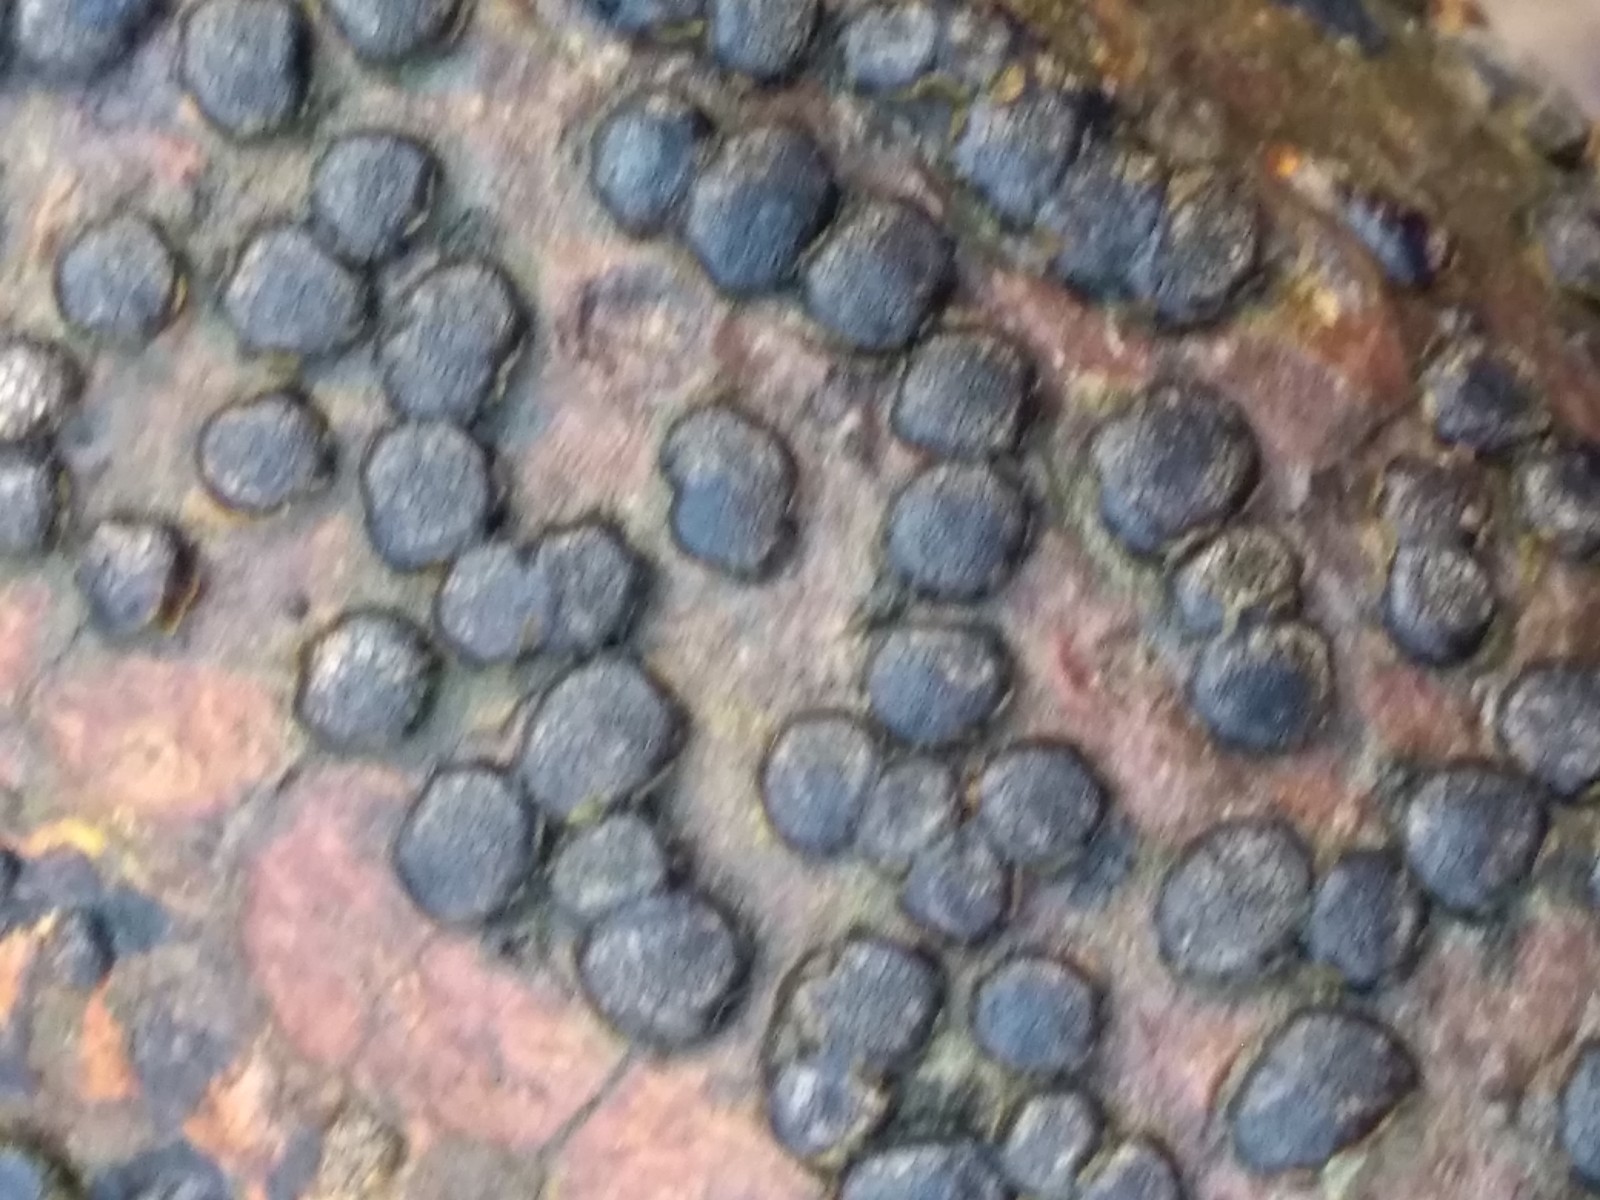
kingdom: Fungi
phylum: Ascomycota
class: Sordariomycetes
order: Xylariales
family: Diatrypaceae
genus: Diatrype
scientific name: Diatrype disciformis
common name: kant-kulskorpe
